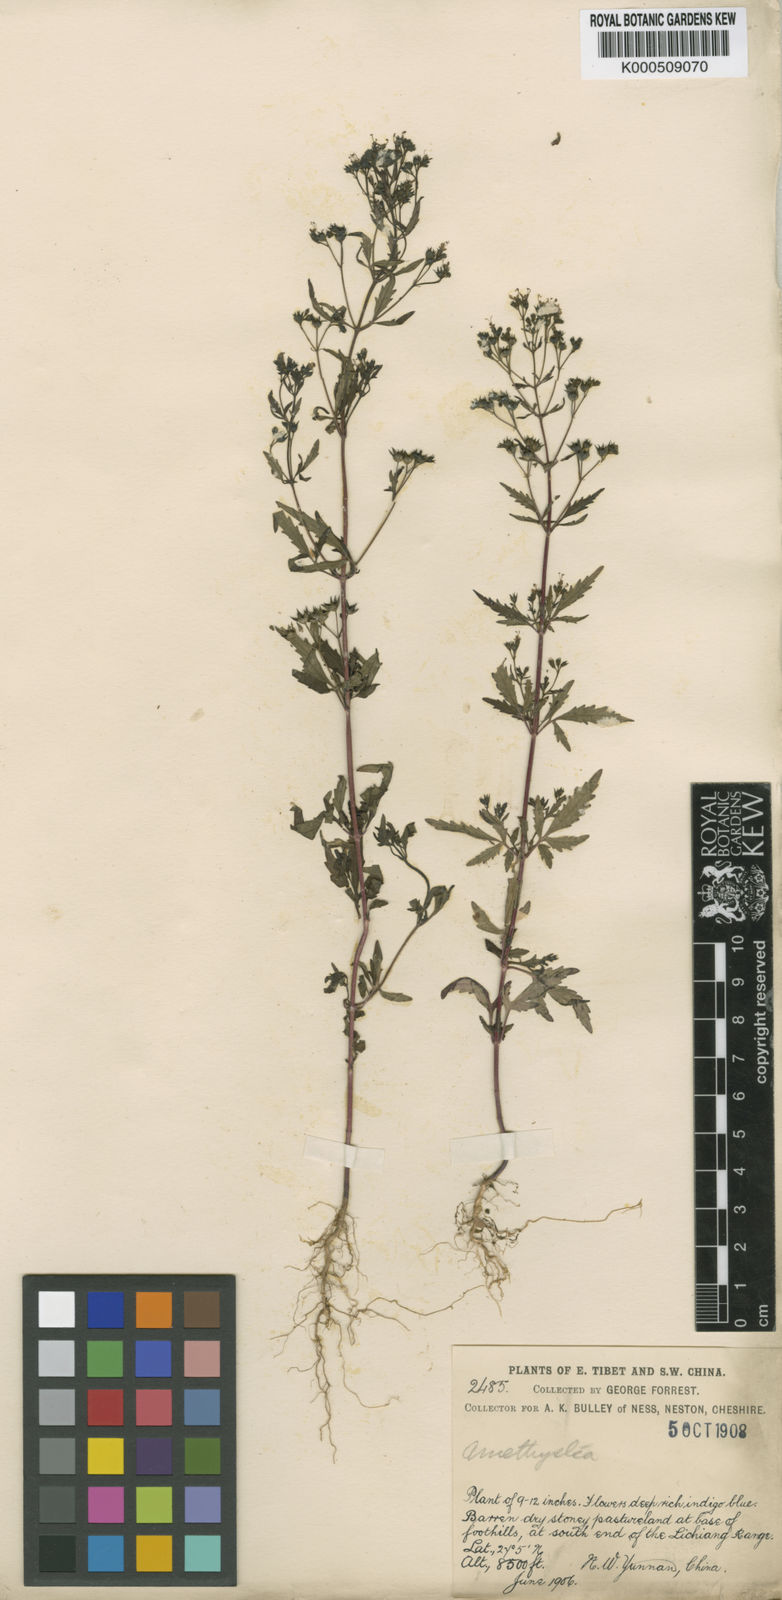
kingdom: Plantae
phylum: Tracheophyta
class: Magnoliopsida
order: Lamiales
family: Lamiaceae
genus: Amethystea
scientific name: Amethystea caerulea
